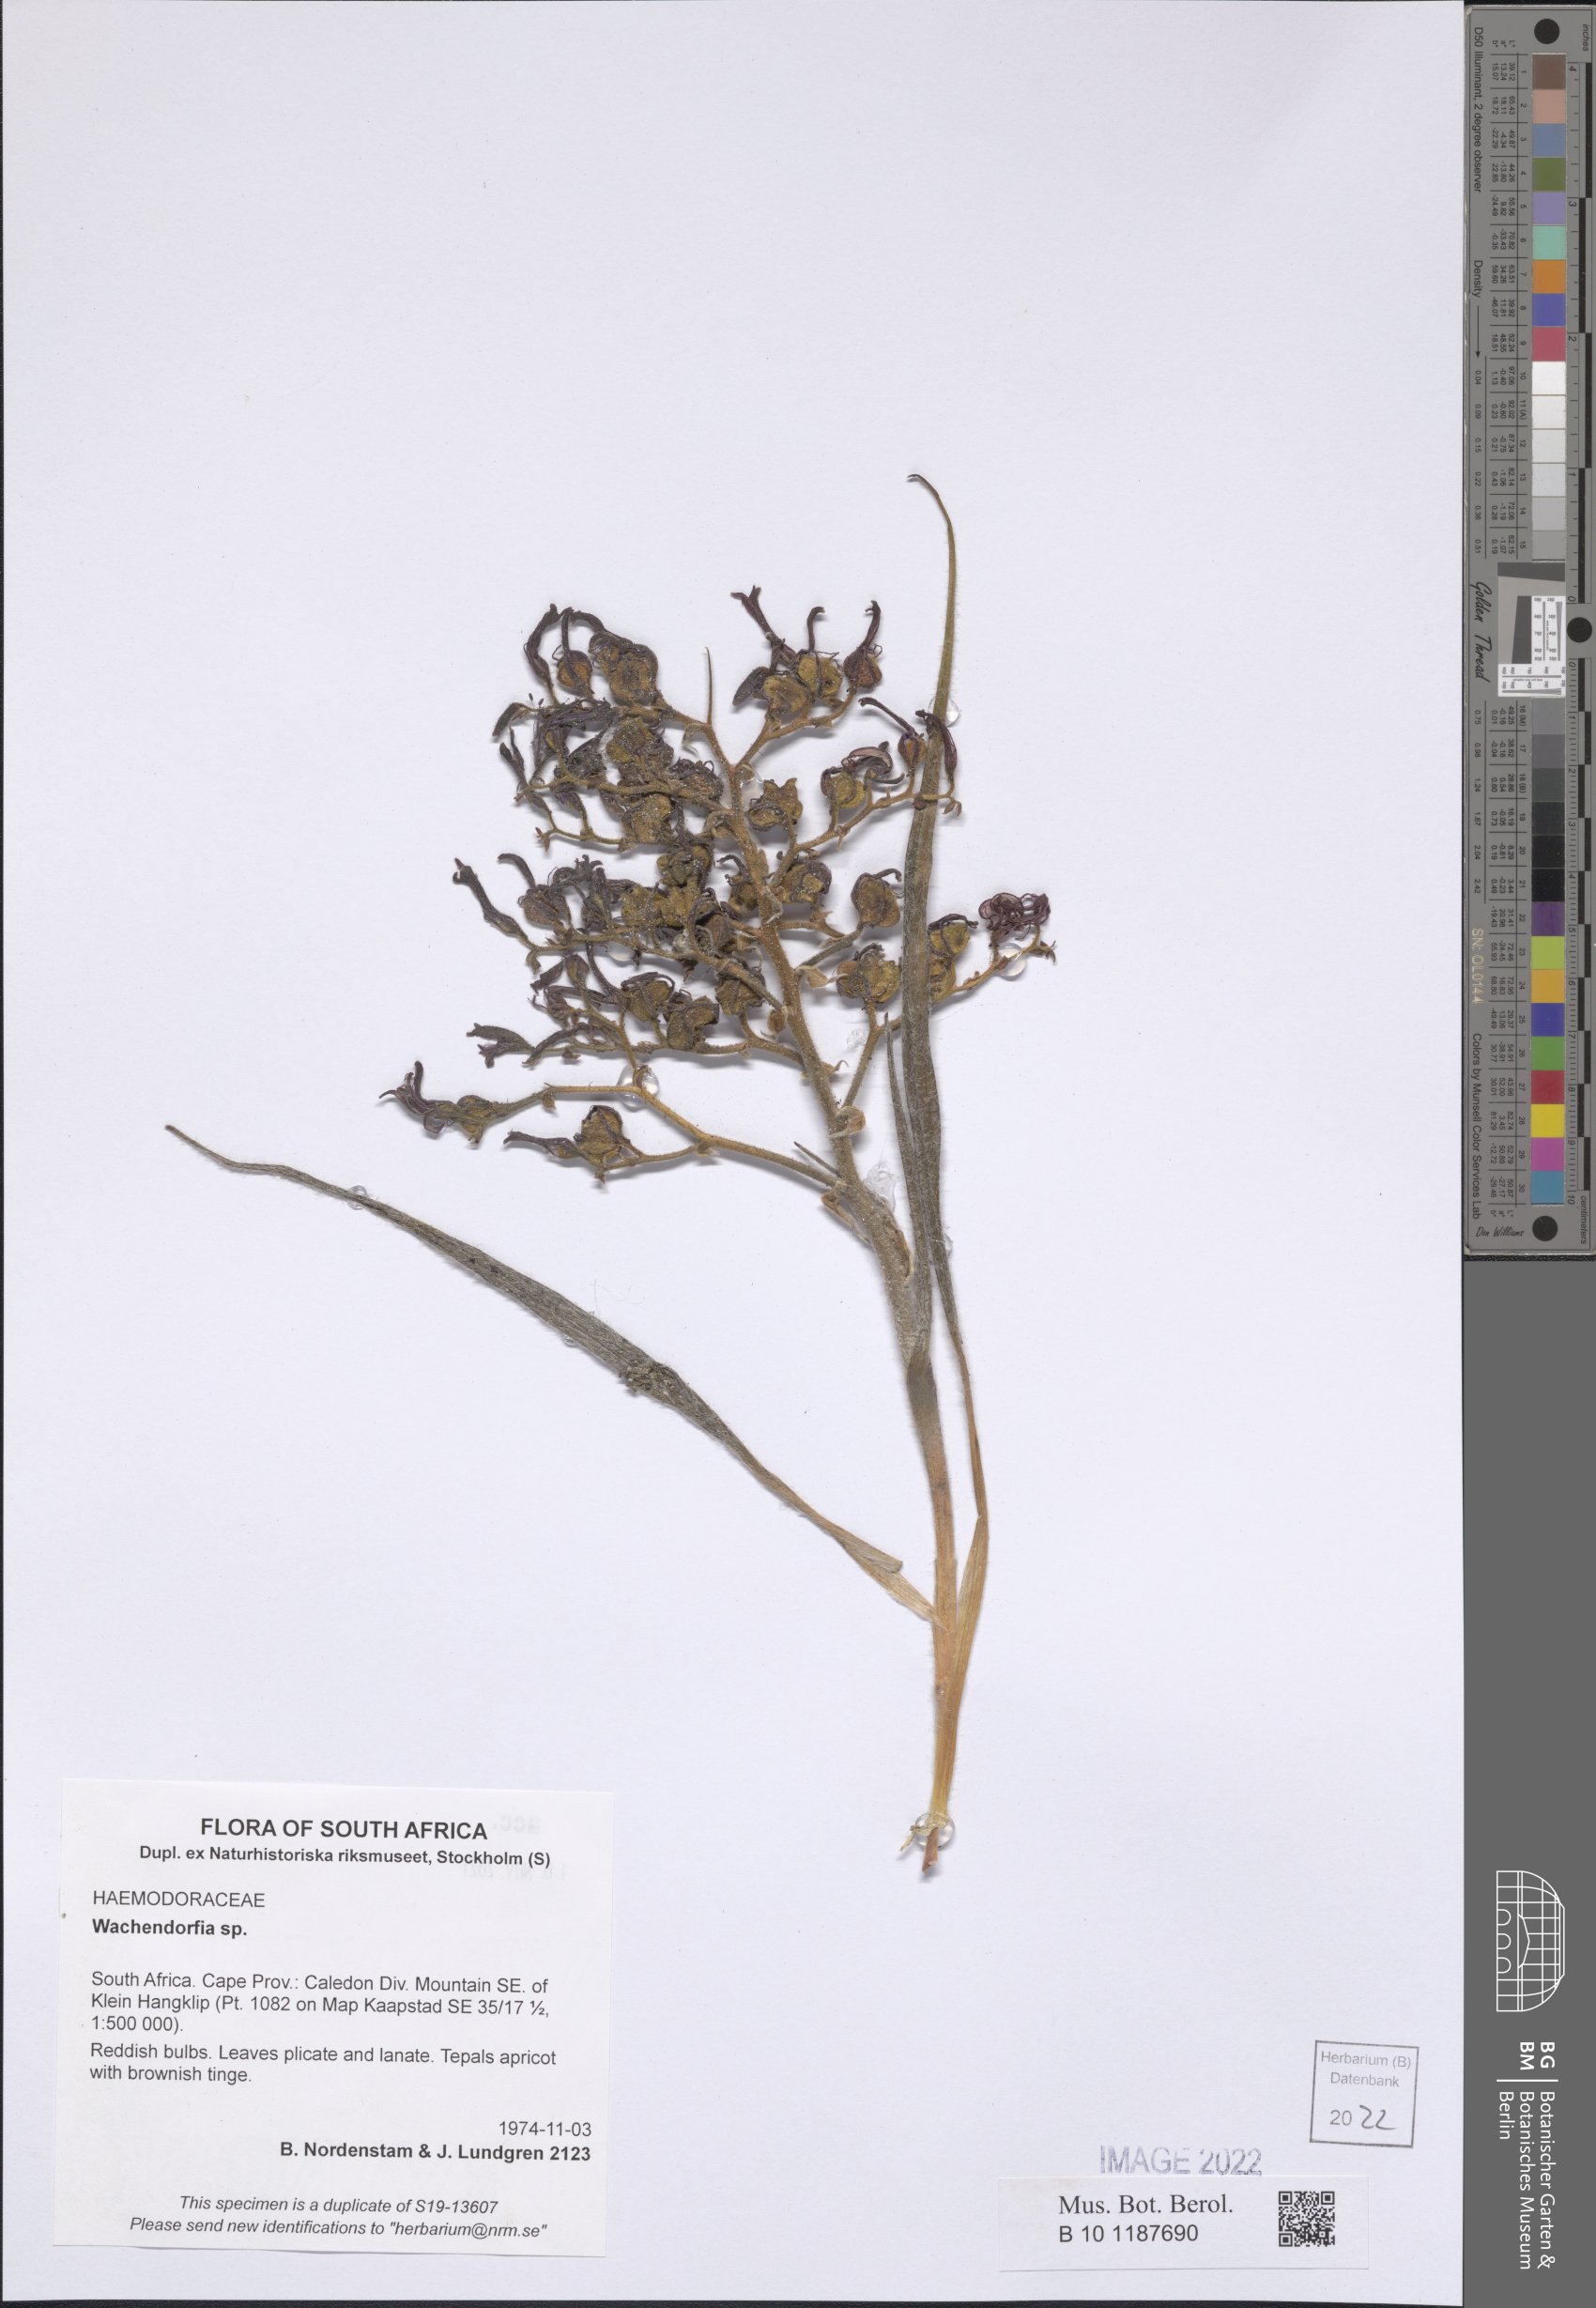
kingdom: Plantae
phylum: Tracheophyta
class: Liliopsida
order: Commelinales
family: Haemodoraceae
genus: Wachendorfia
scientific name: Wachendorfia
